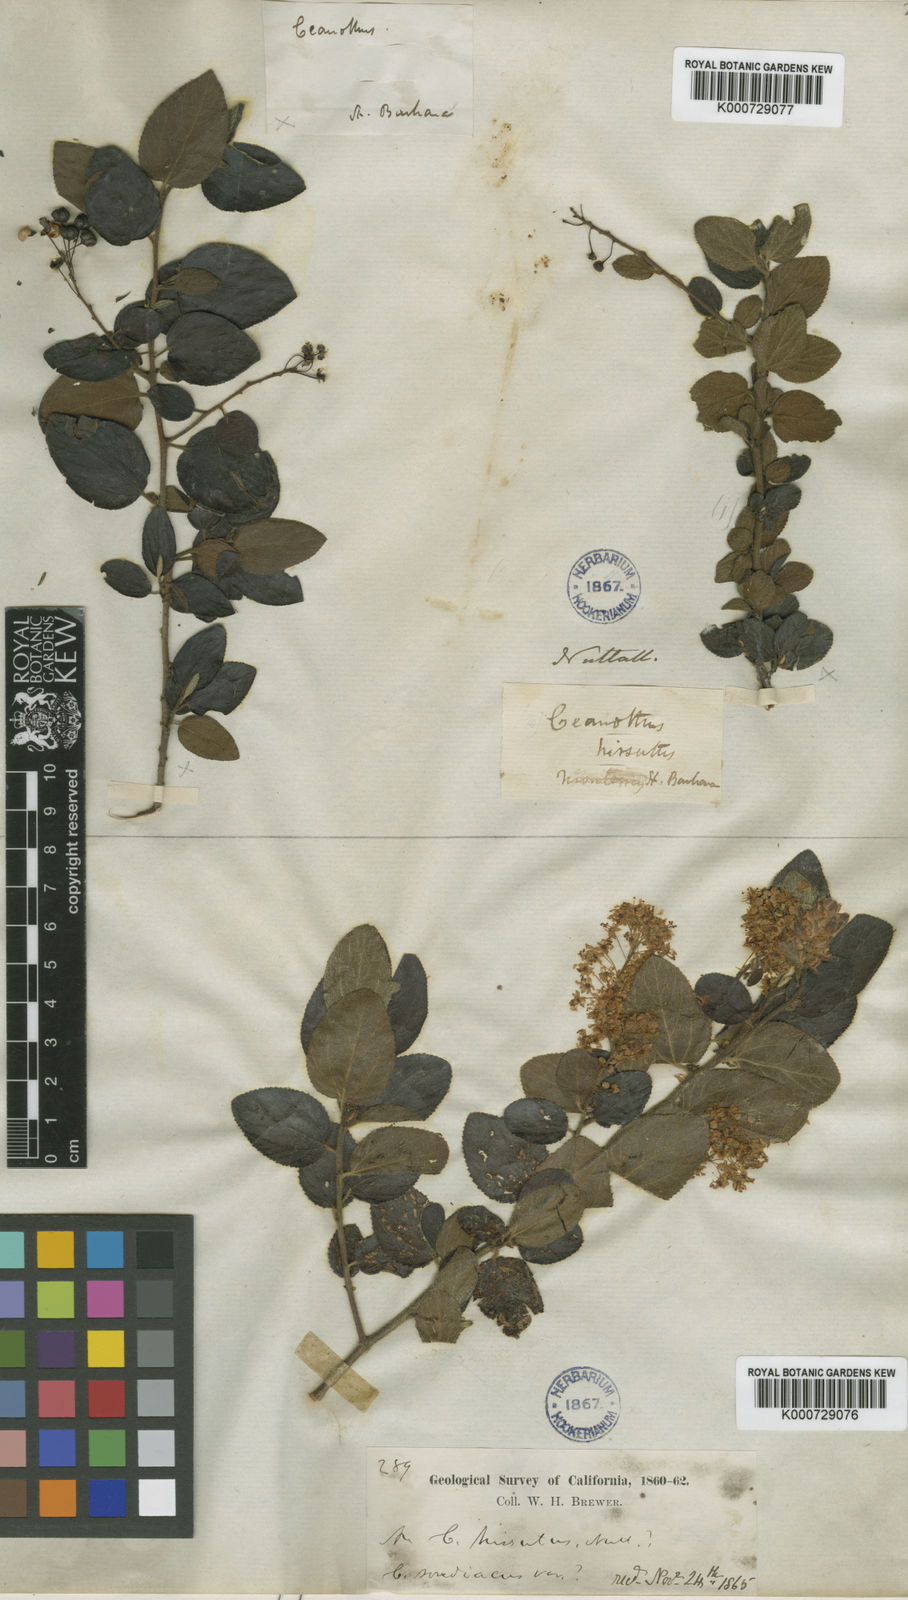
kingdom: Plantae
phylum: Tracheophyta
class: Magnoliopsida
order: Rosales
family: Rhamnaceae
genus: Ceanothus
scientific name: Ceanothus oliganthus
